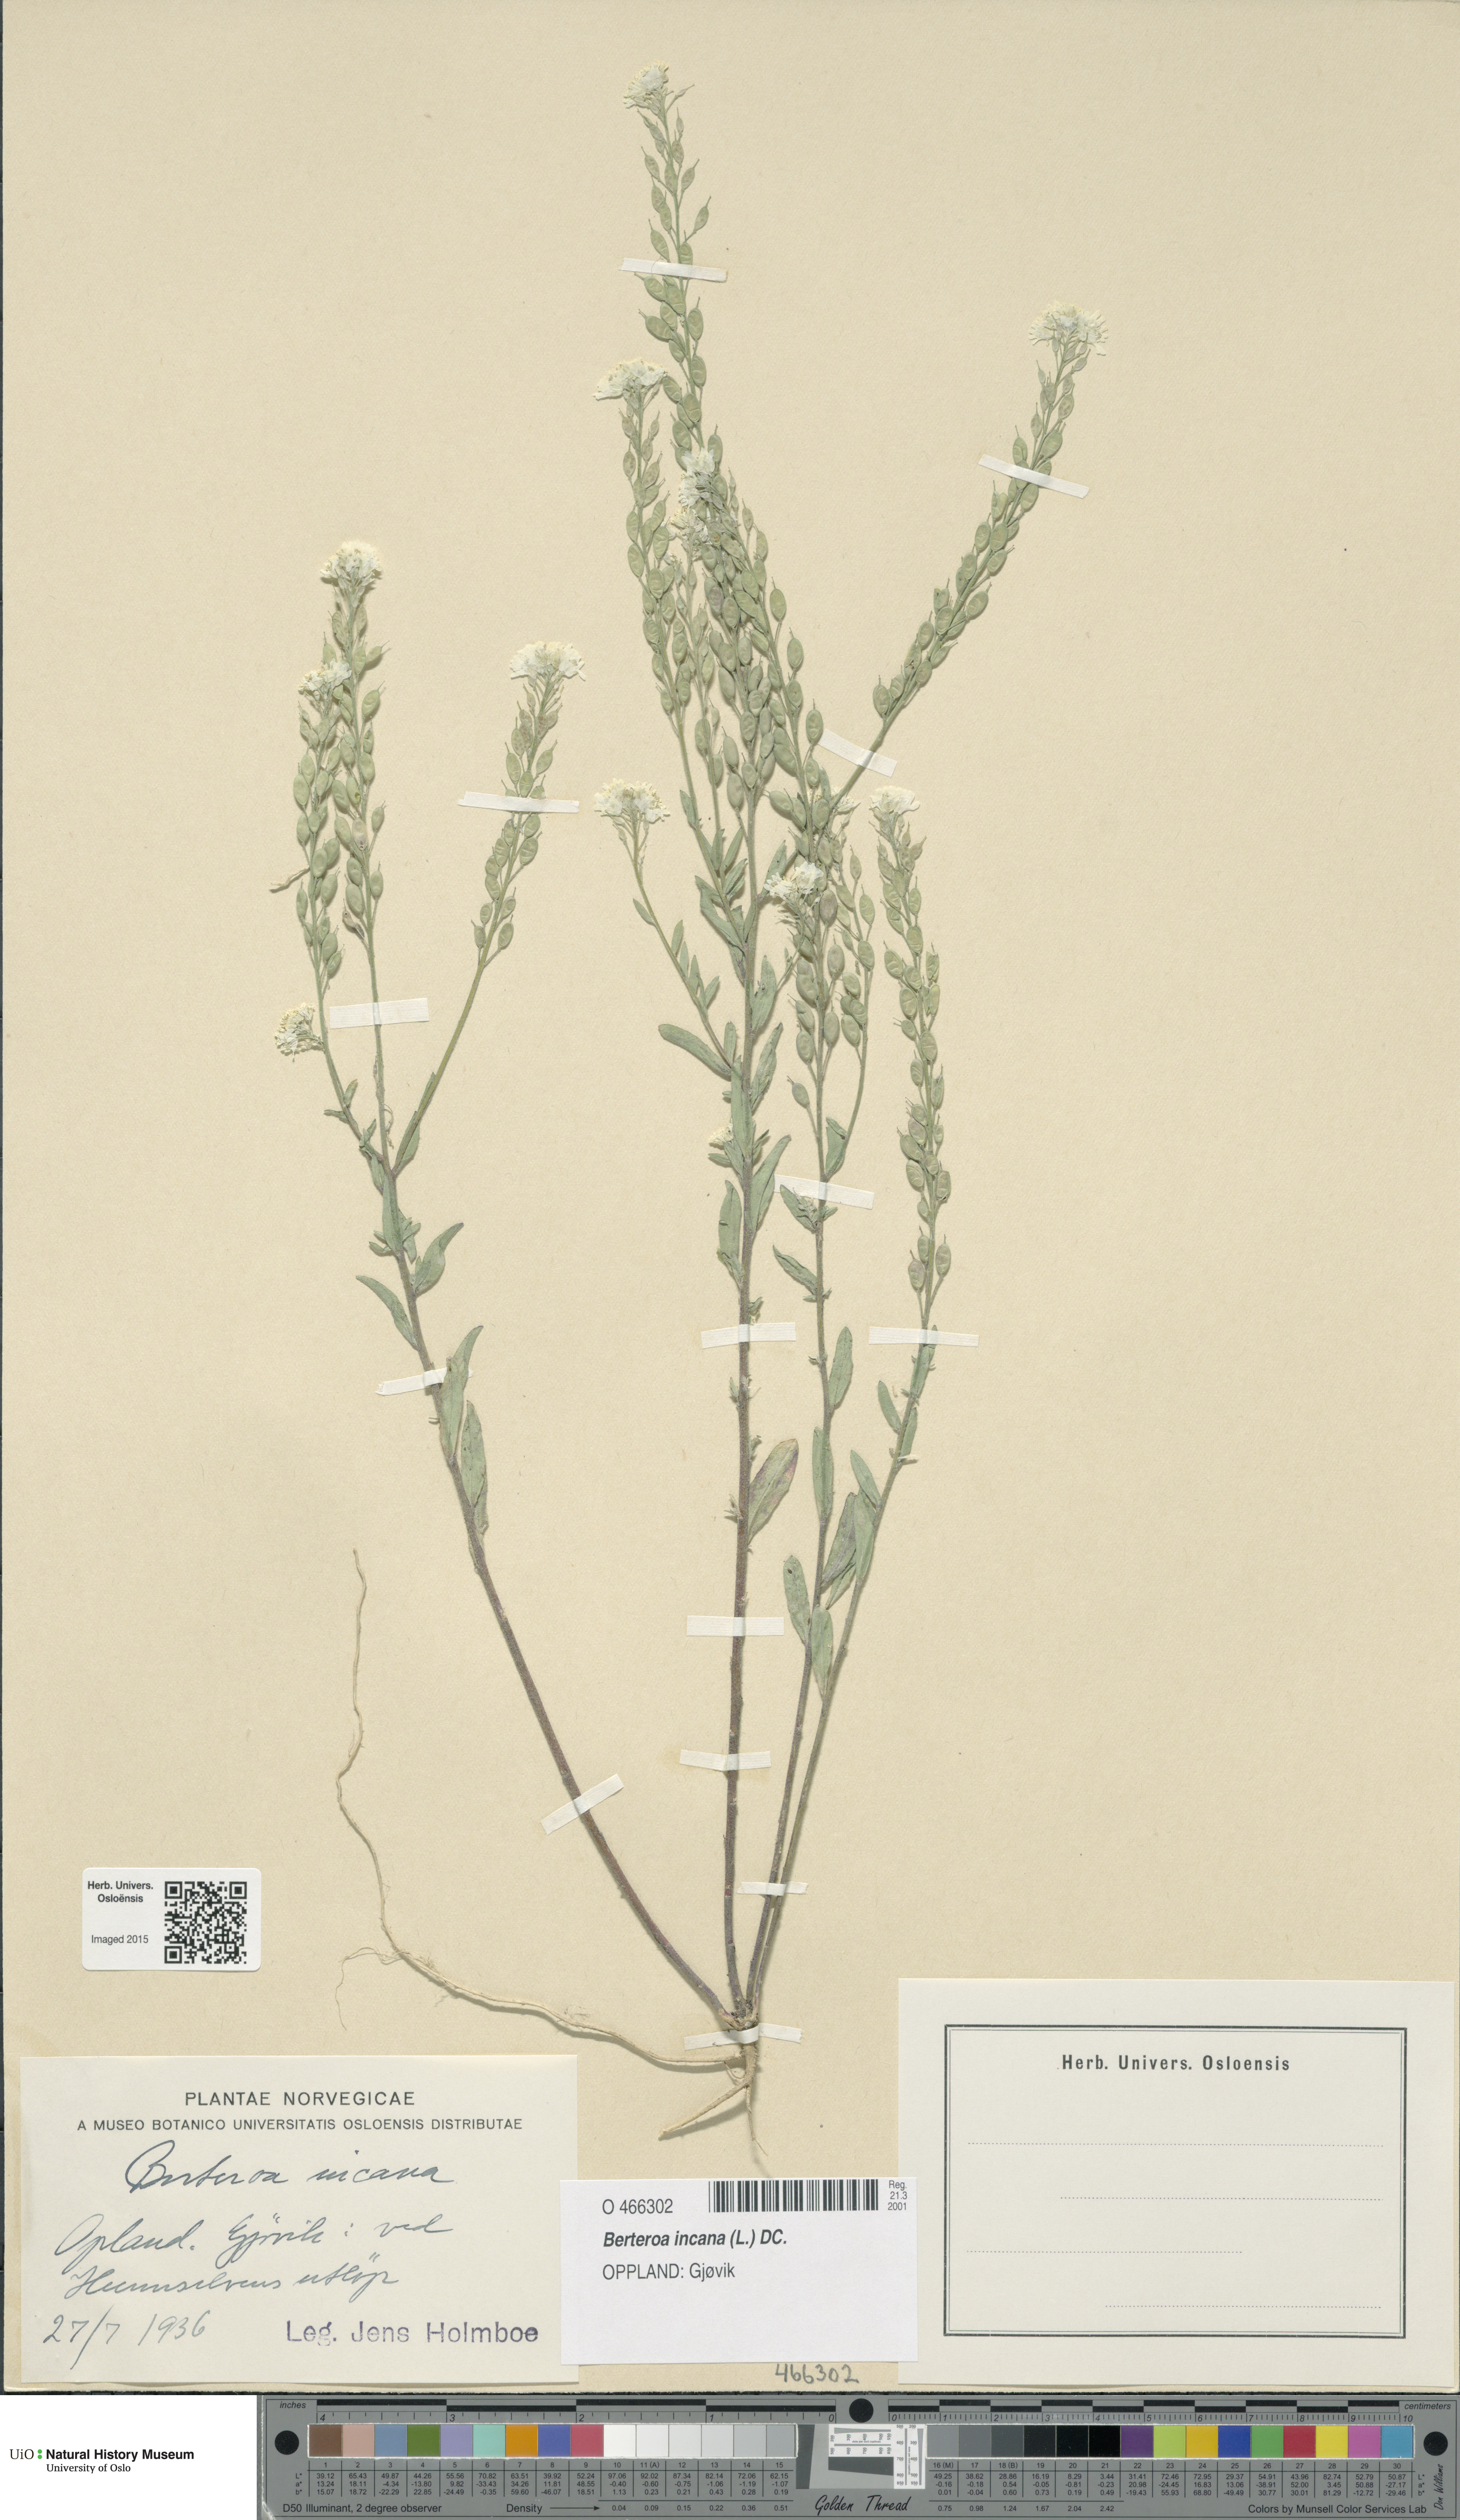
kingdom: Plantae
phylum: Tracheophyta
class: Magnoliopsida
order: Brassicales
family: Brassicaceae
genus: Berteroa
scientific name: Berteroa incana
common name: Hoary alison
